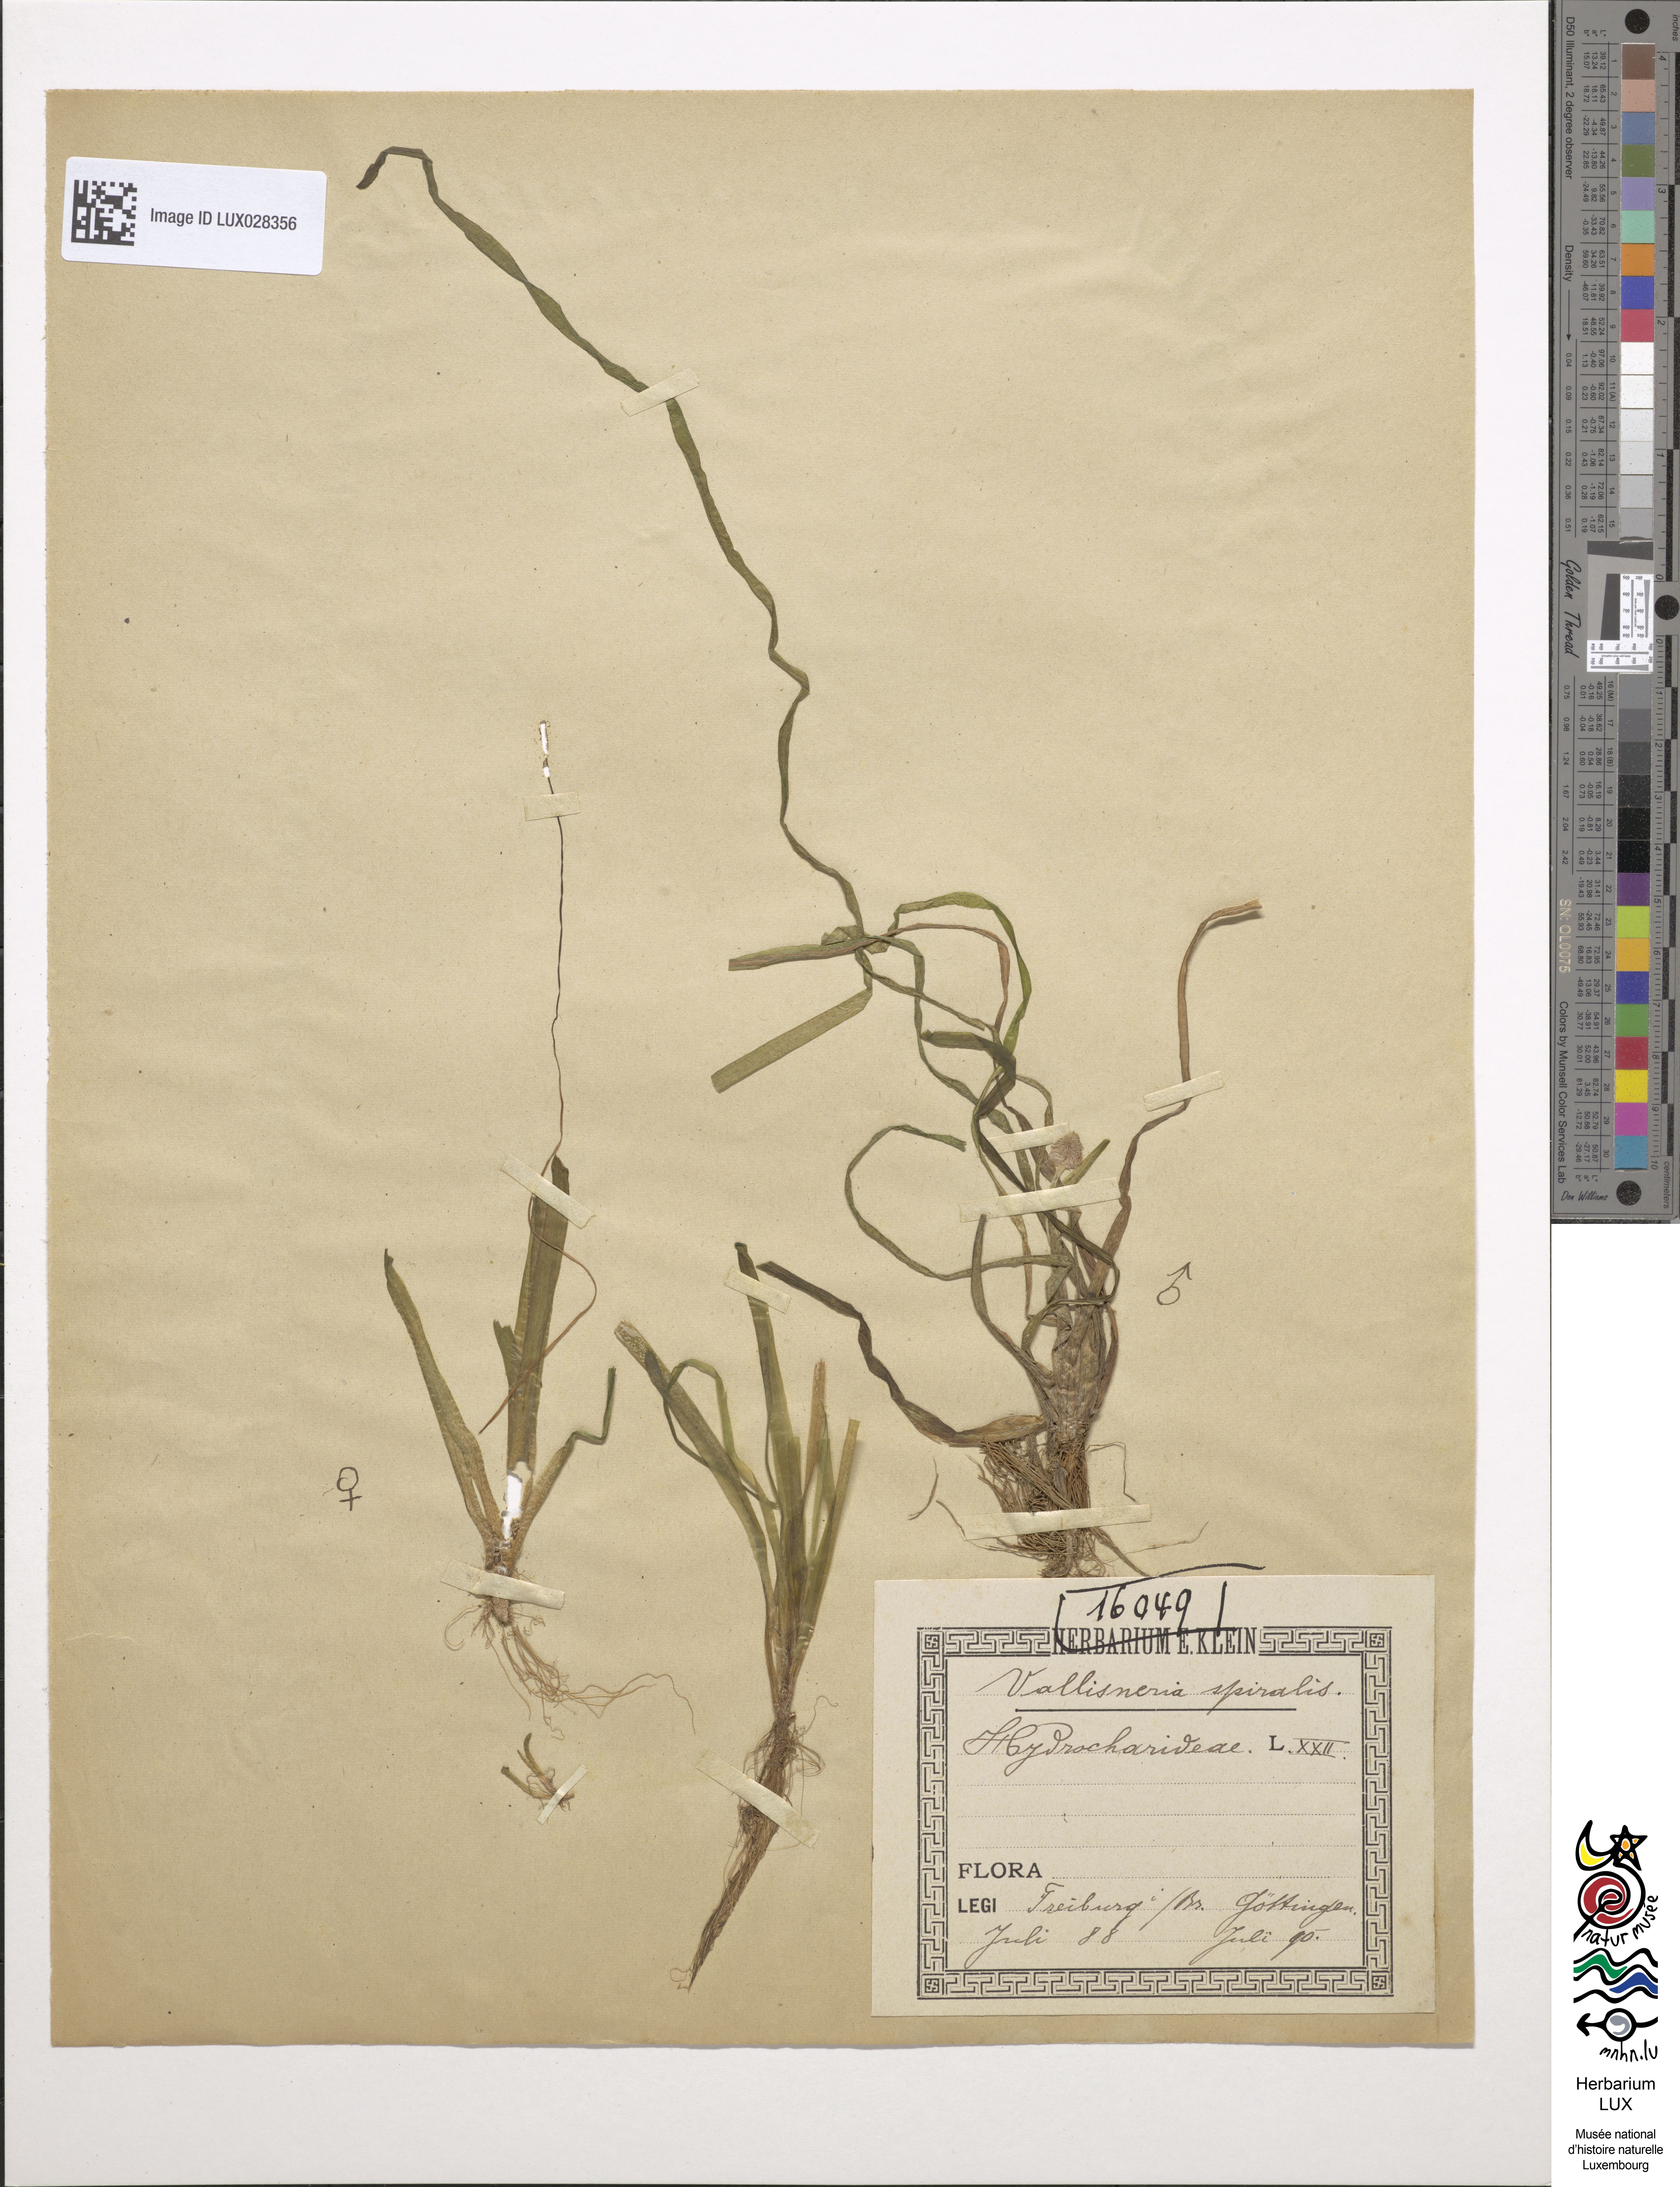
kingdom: Plantae
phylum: Tracheophyta
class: Liliopsida
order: Alismatales
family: Hydrocharitaceae
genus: Vallisneria
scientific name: Vallisneria spiralis
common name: Tapegrass
